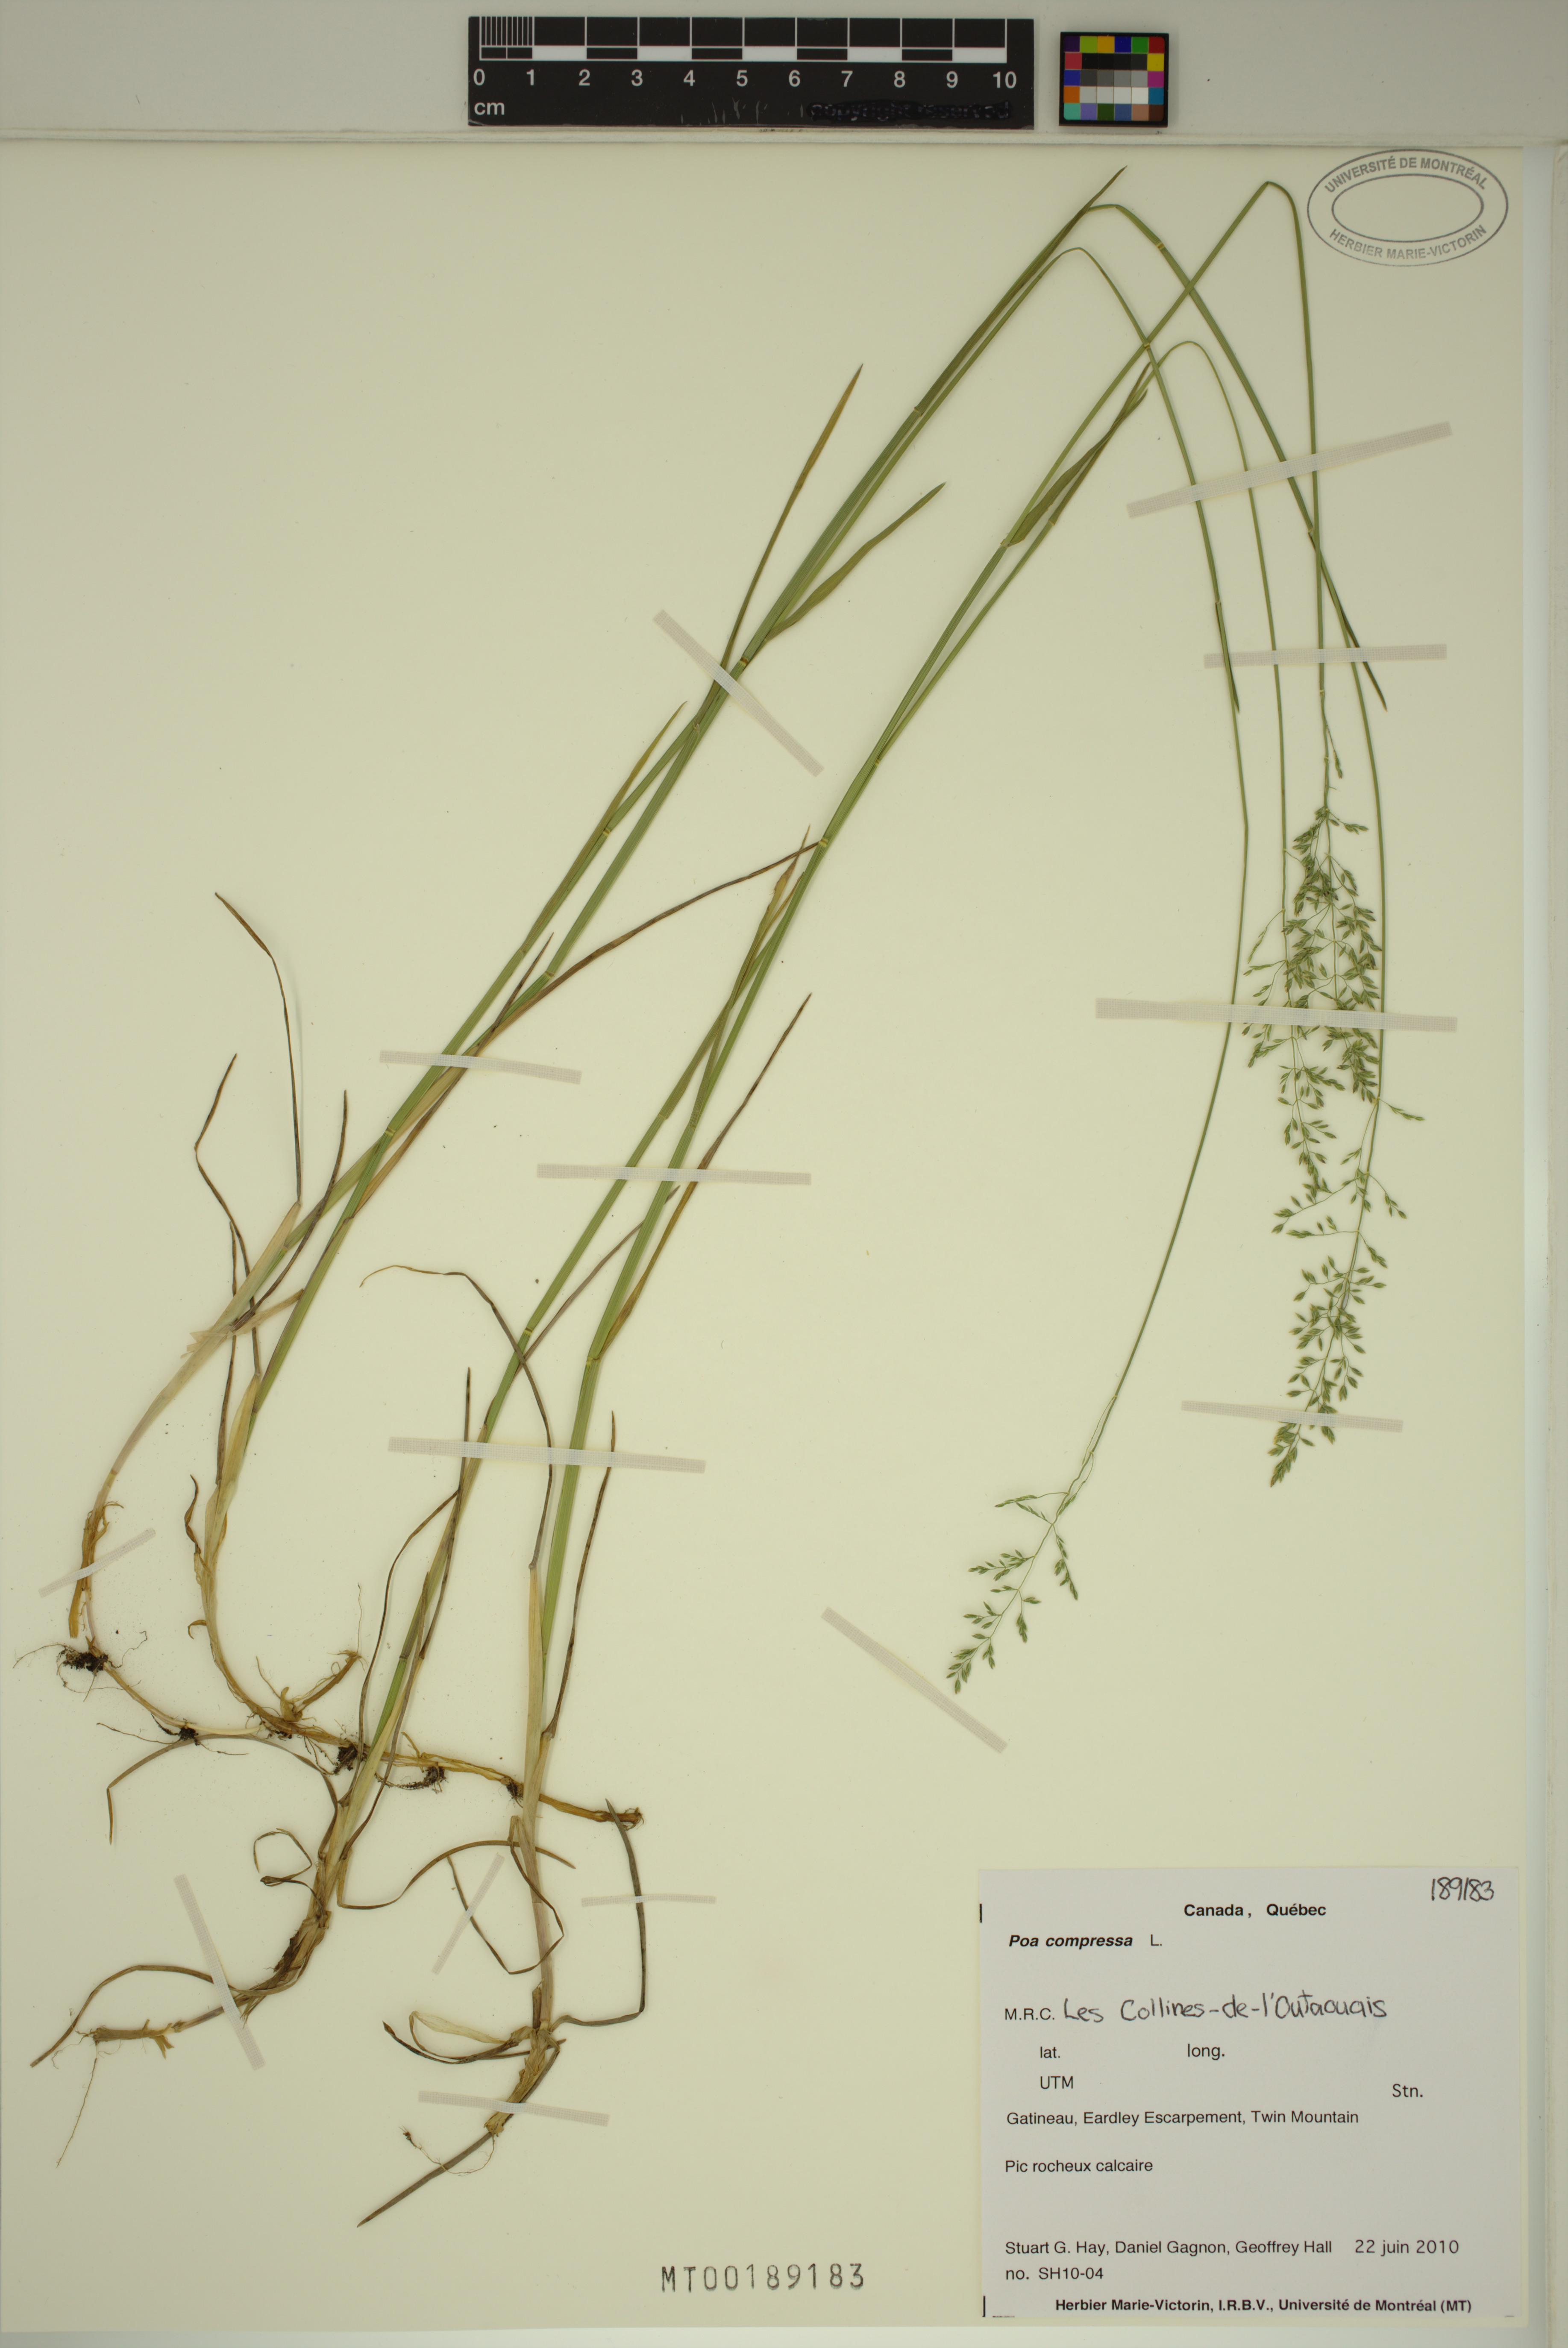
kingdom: Plantae
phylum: Tracheophyta
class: Liliopsida
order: Poales
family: Poaceae
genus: Poa
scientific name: Poa compressa
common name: Canada bluegrass
